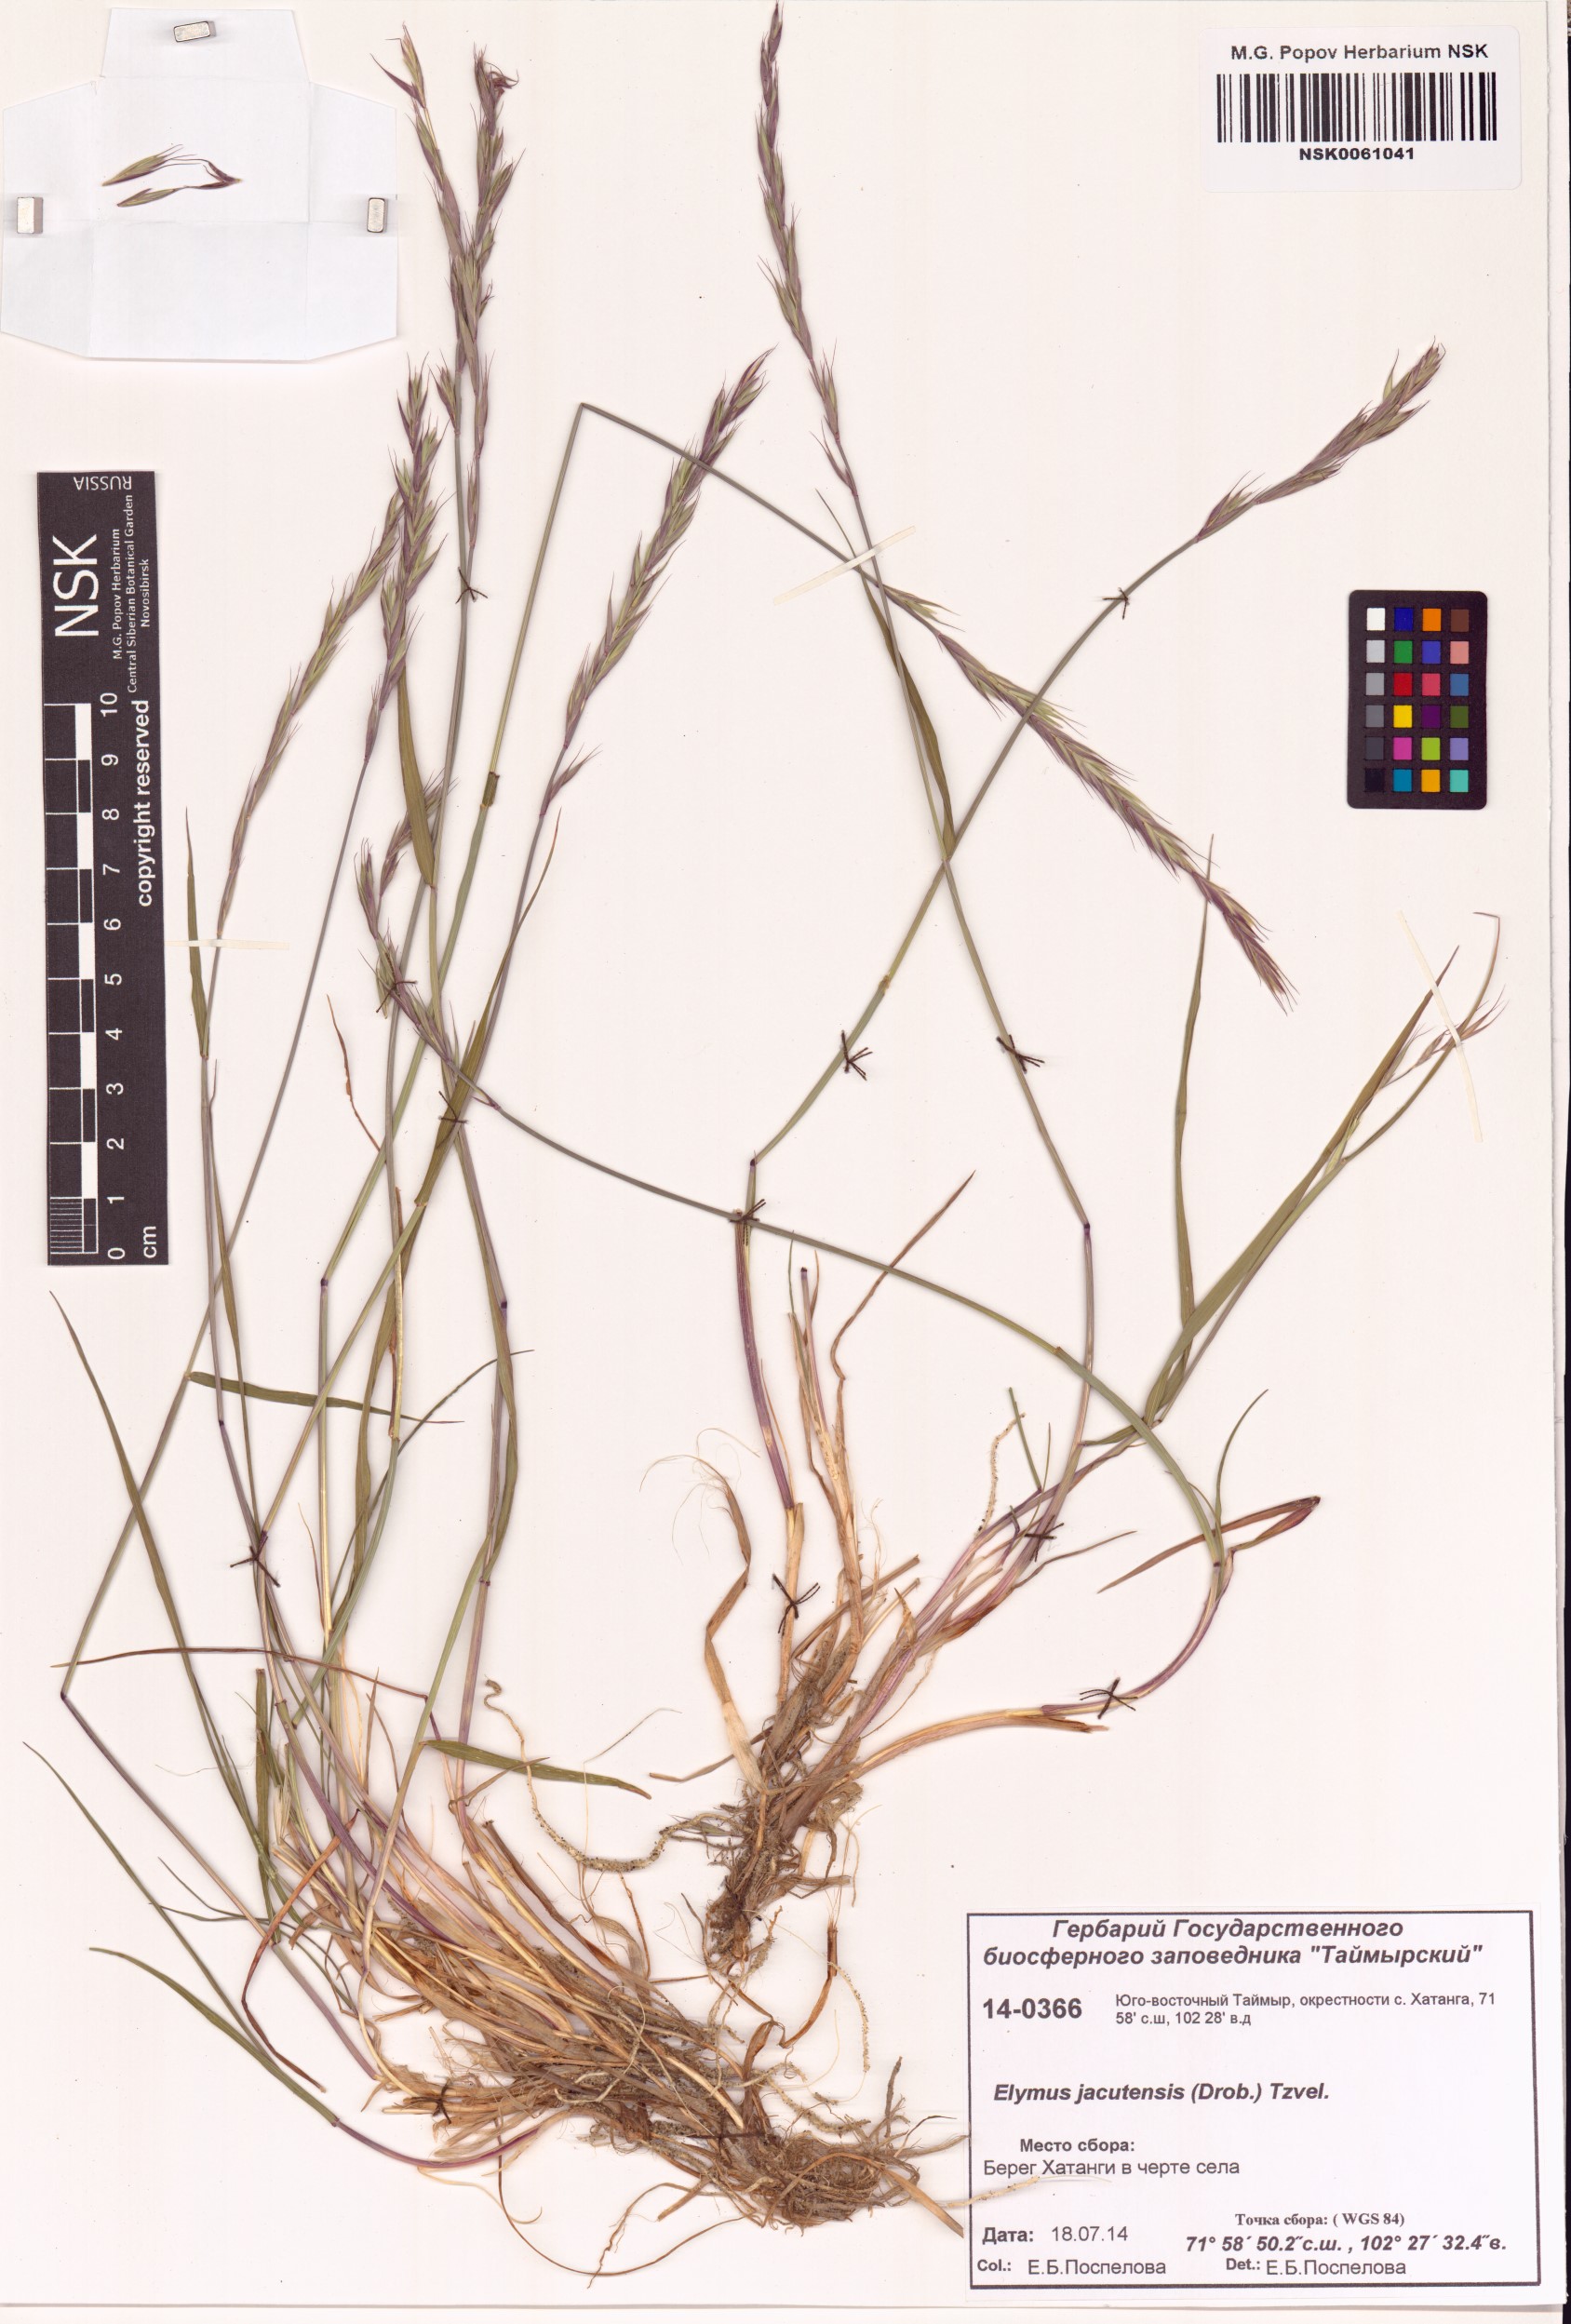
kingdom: Plantae
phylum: Tracheophyta
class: Liliopsida
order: Poales
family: Poaceae
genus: Elymus
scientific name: Elymus jacutensis
